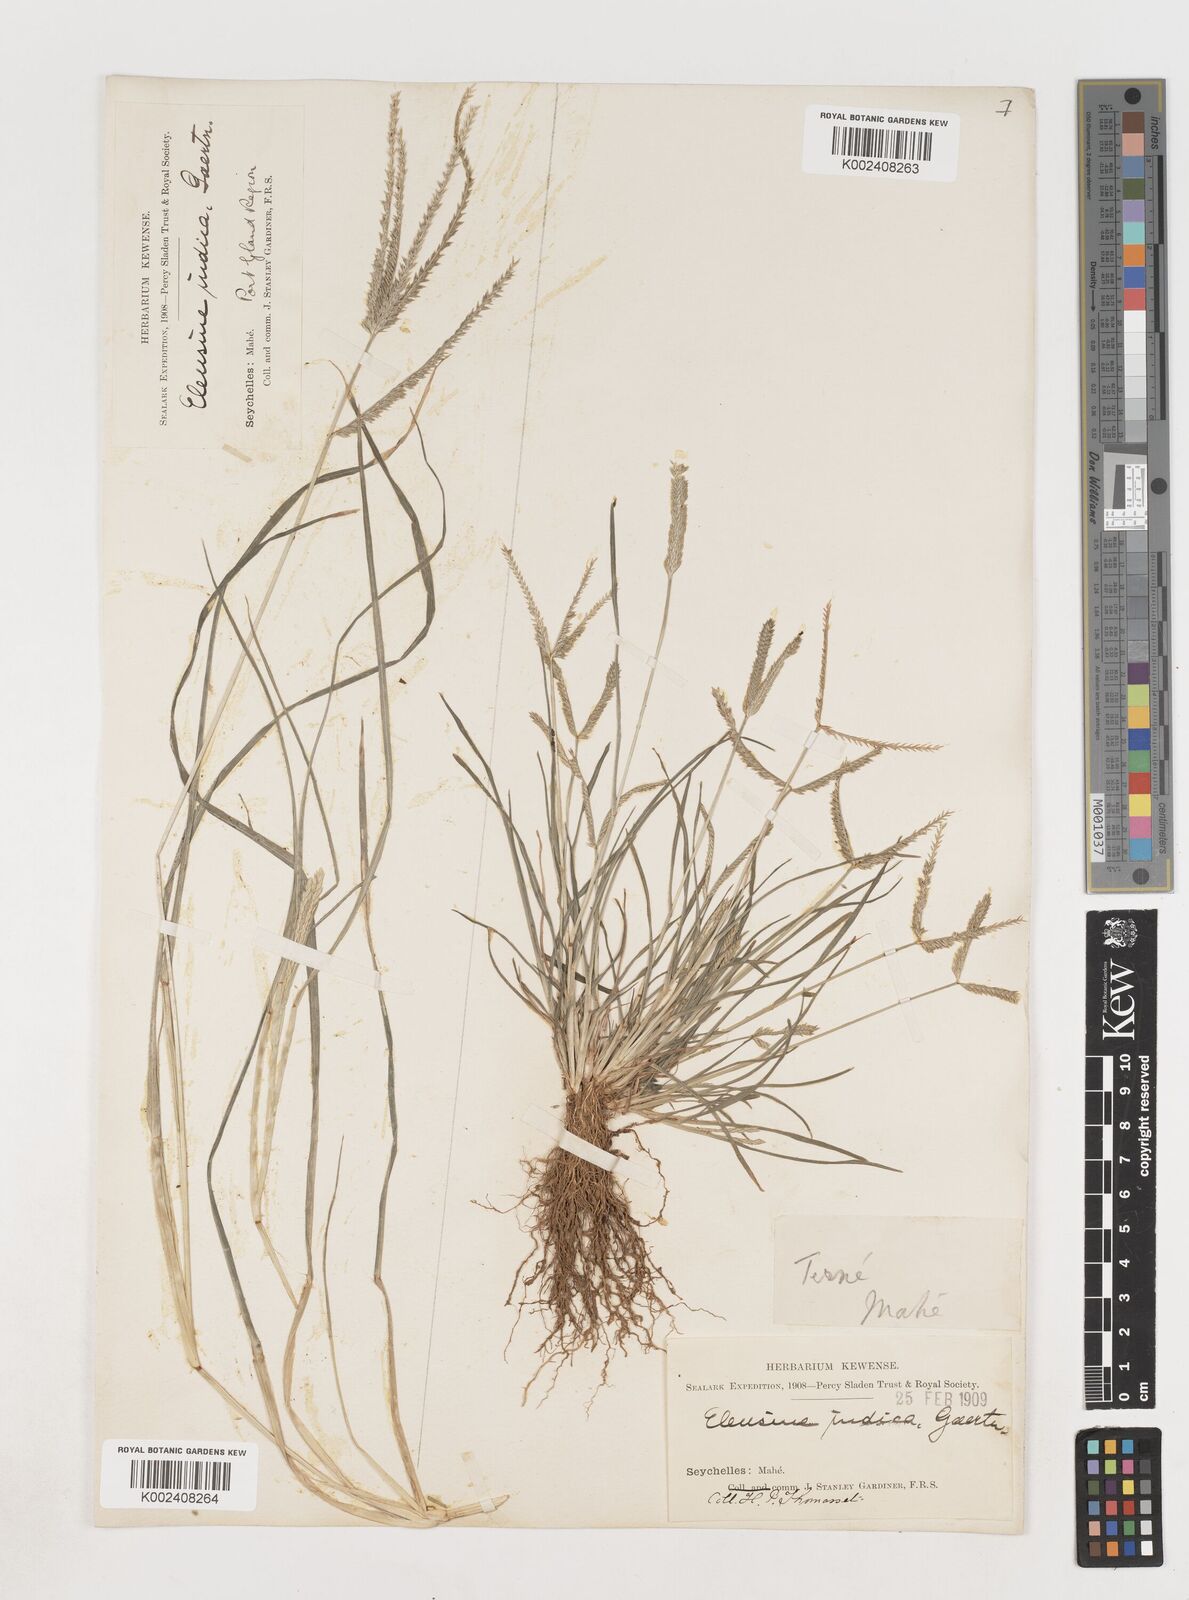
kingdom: Plantae
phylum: Tracheophyta
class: Liliopsida
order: Poales
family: Poaceae
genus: Eleusine
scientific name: Eleusine indica
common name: Yard-grass
